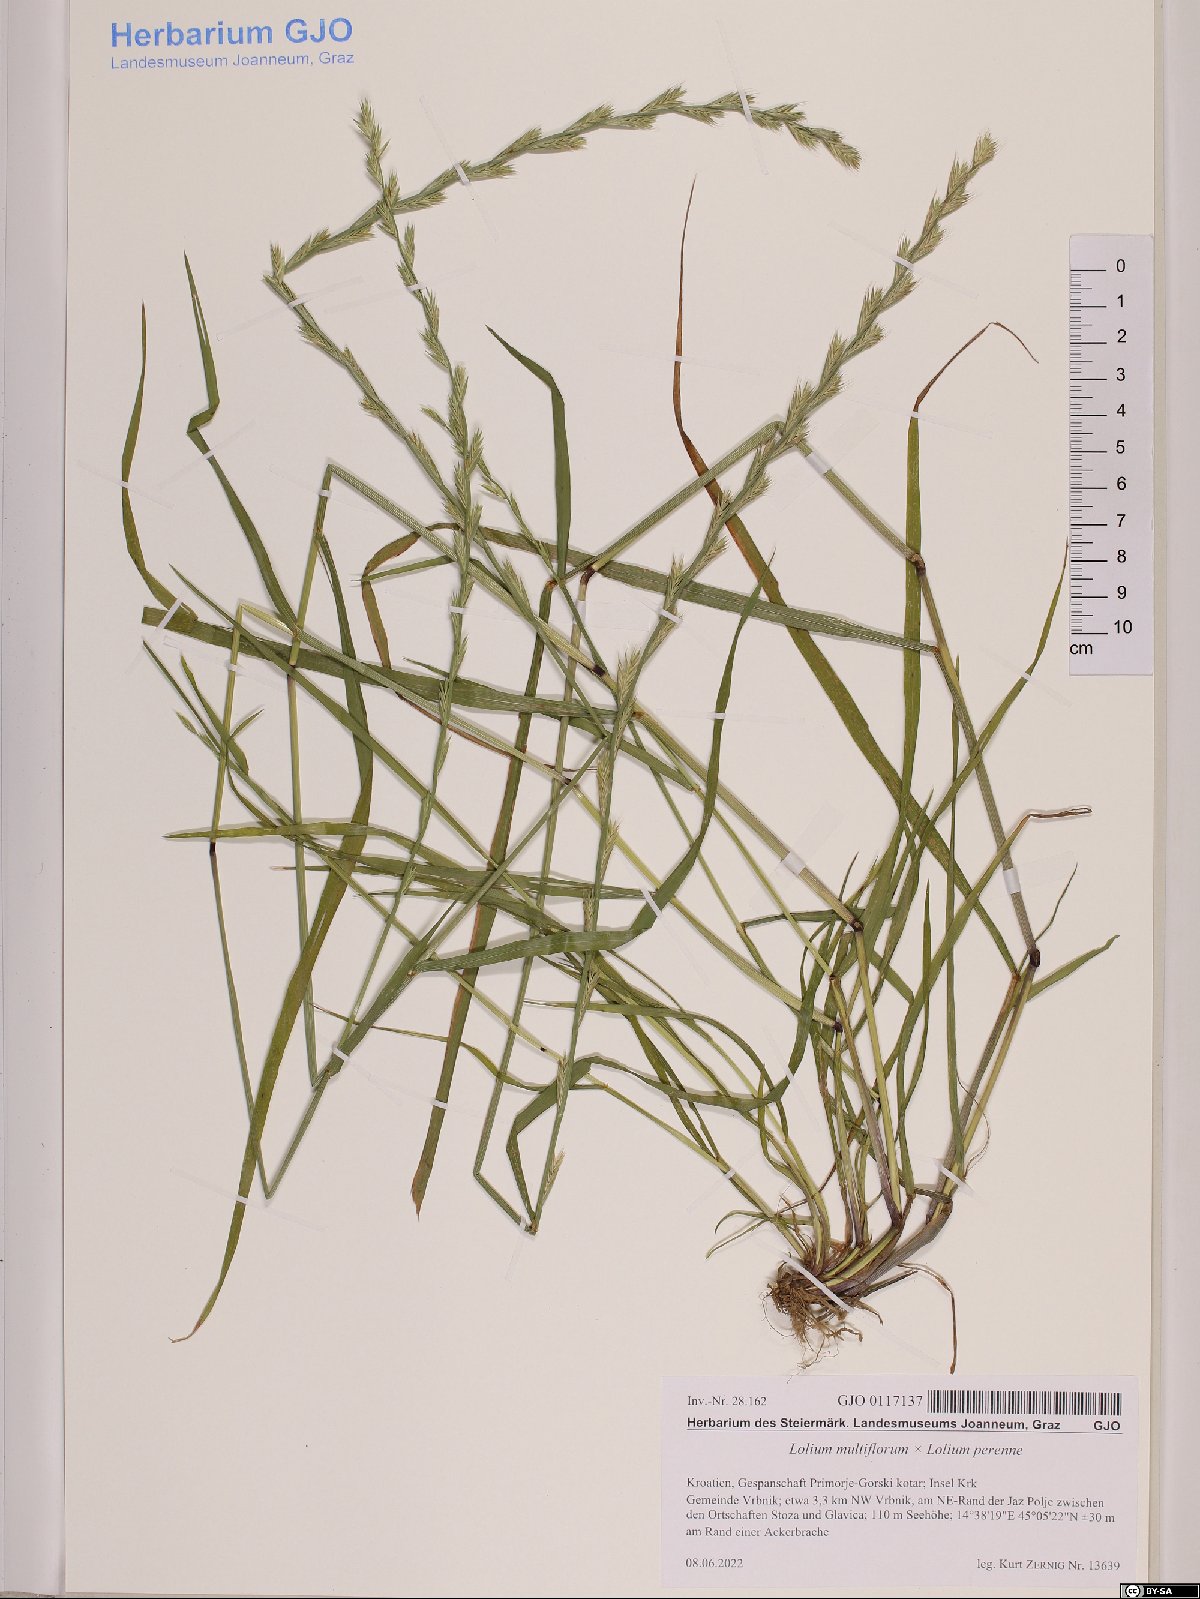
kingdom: Plantae
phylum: Tracheophyta
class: Liliopsida
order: Poales
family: Poaceae
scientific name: Poaceae
